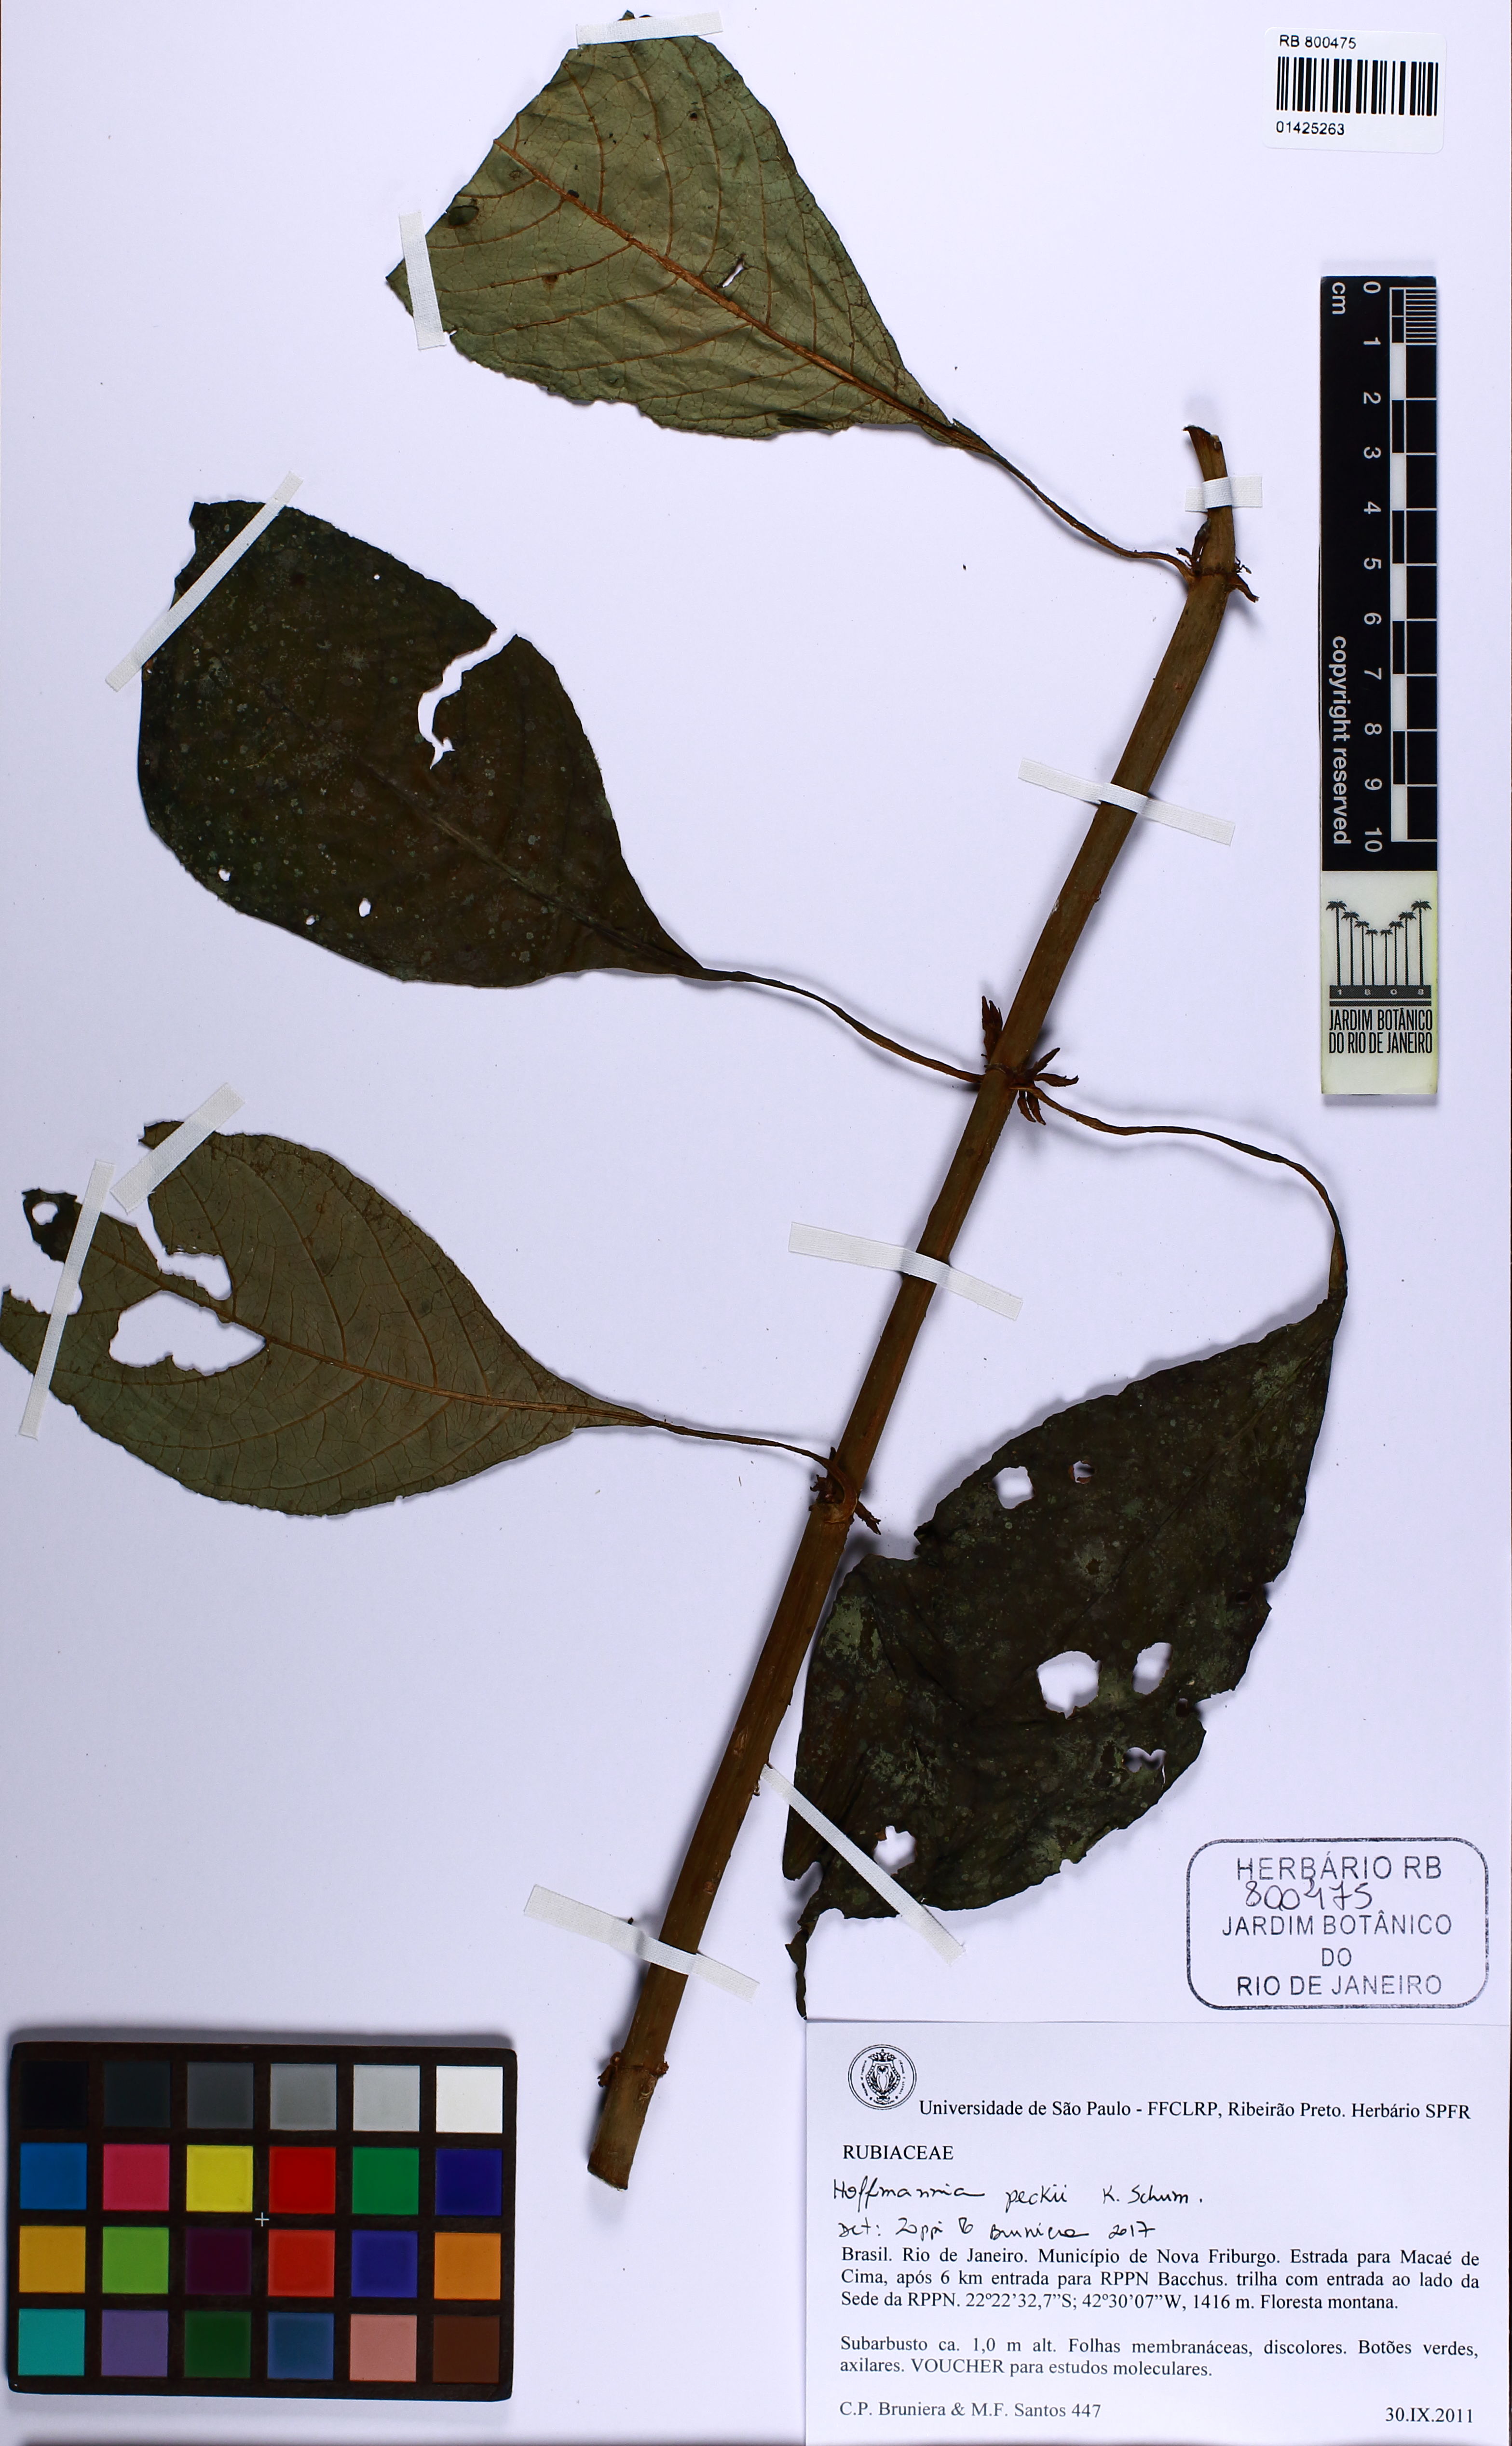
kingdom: Plantae
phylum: Tracheophyta
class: Magnoliopsida
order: Gentianales
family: Rubiaceae
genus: Hoffmannia
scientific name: Hoffmannia peckii
